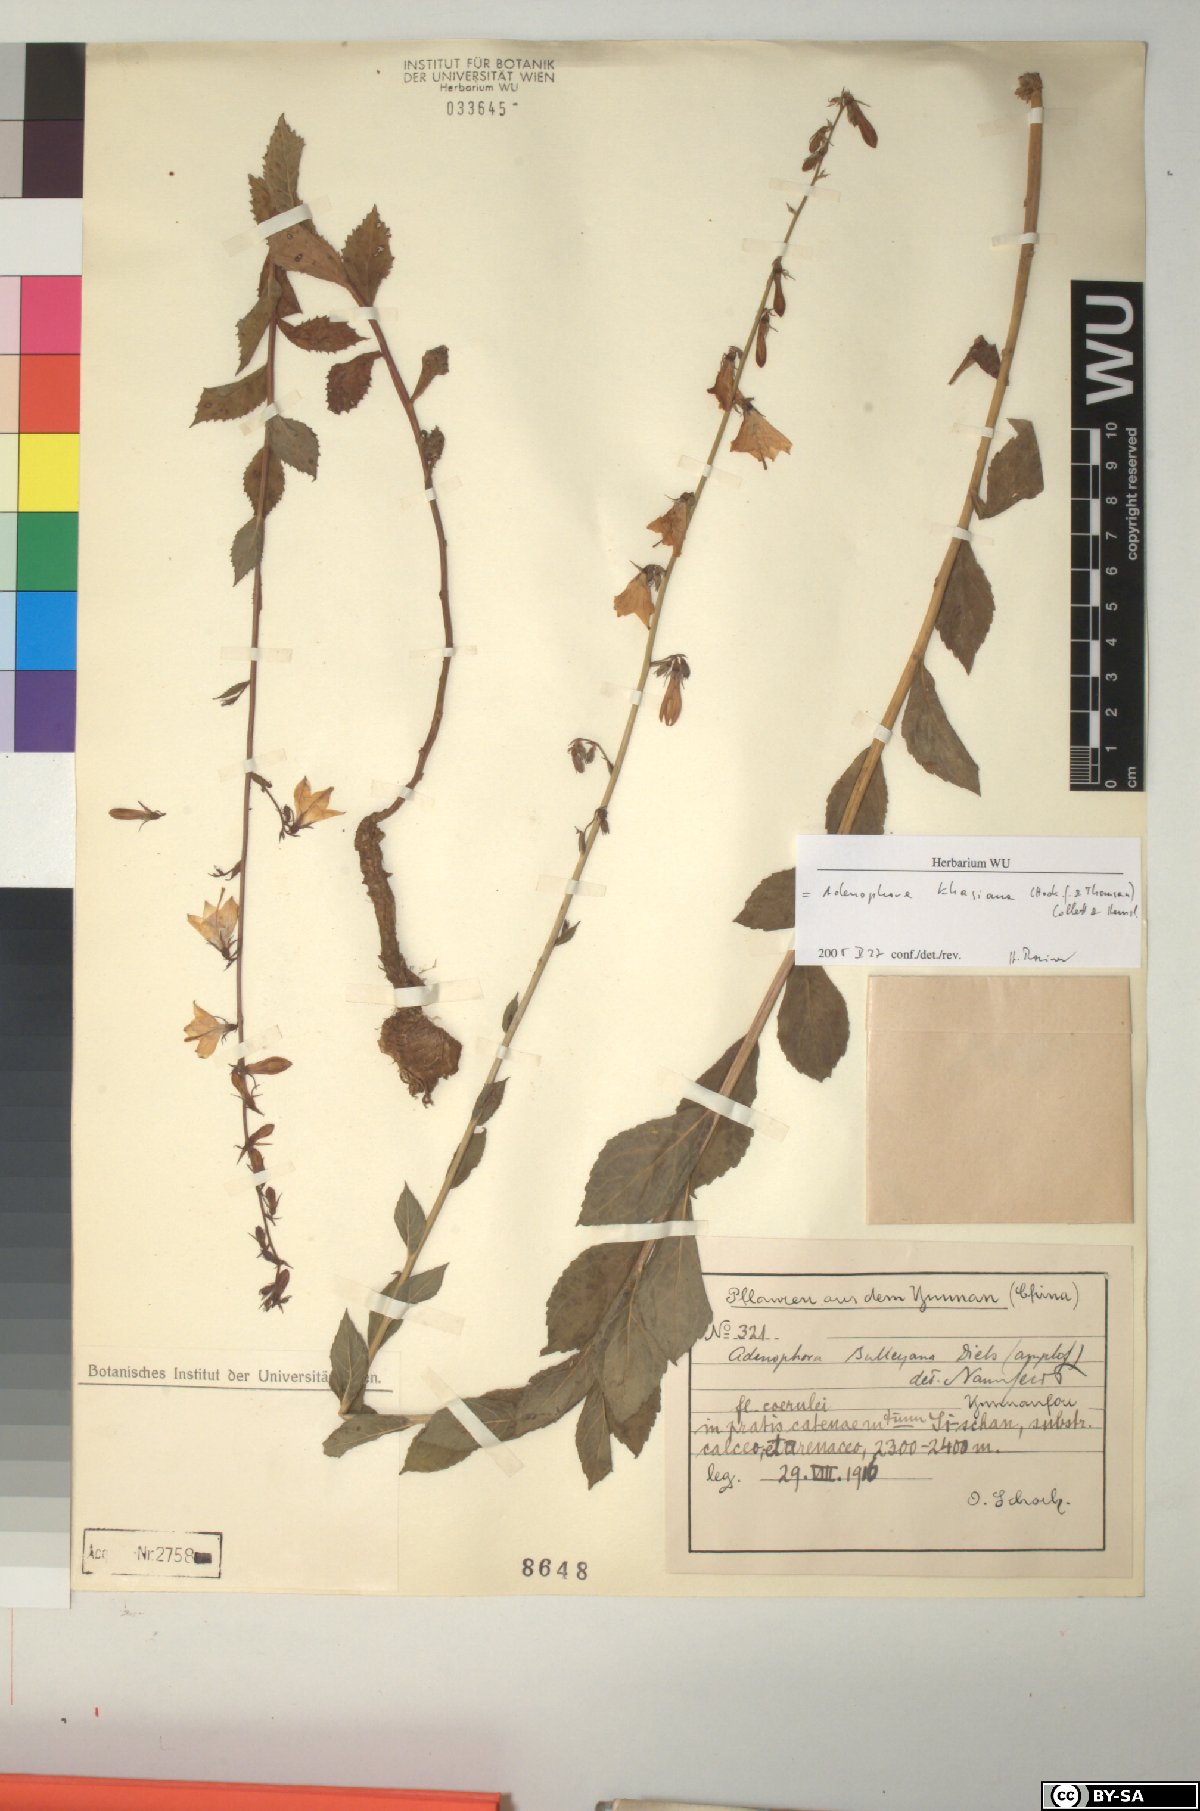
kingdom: Plantae
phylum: Tracheophyta
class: Magnoliopsida
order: Asterales
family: Campanulaceae
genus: Adenophora
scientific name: Adenophora khasiana
